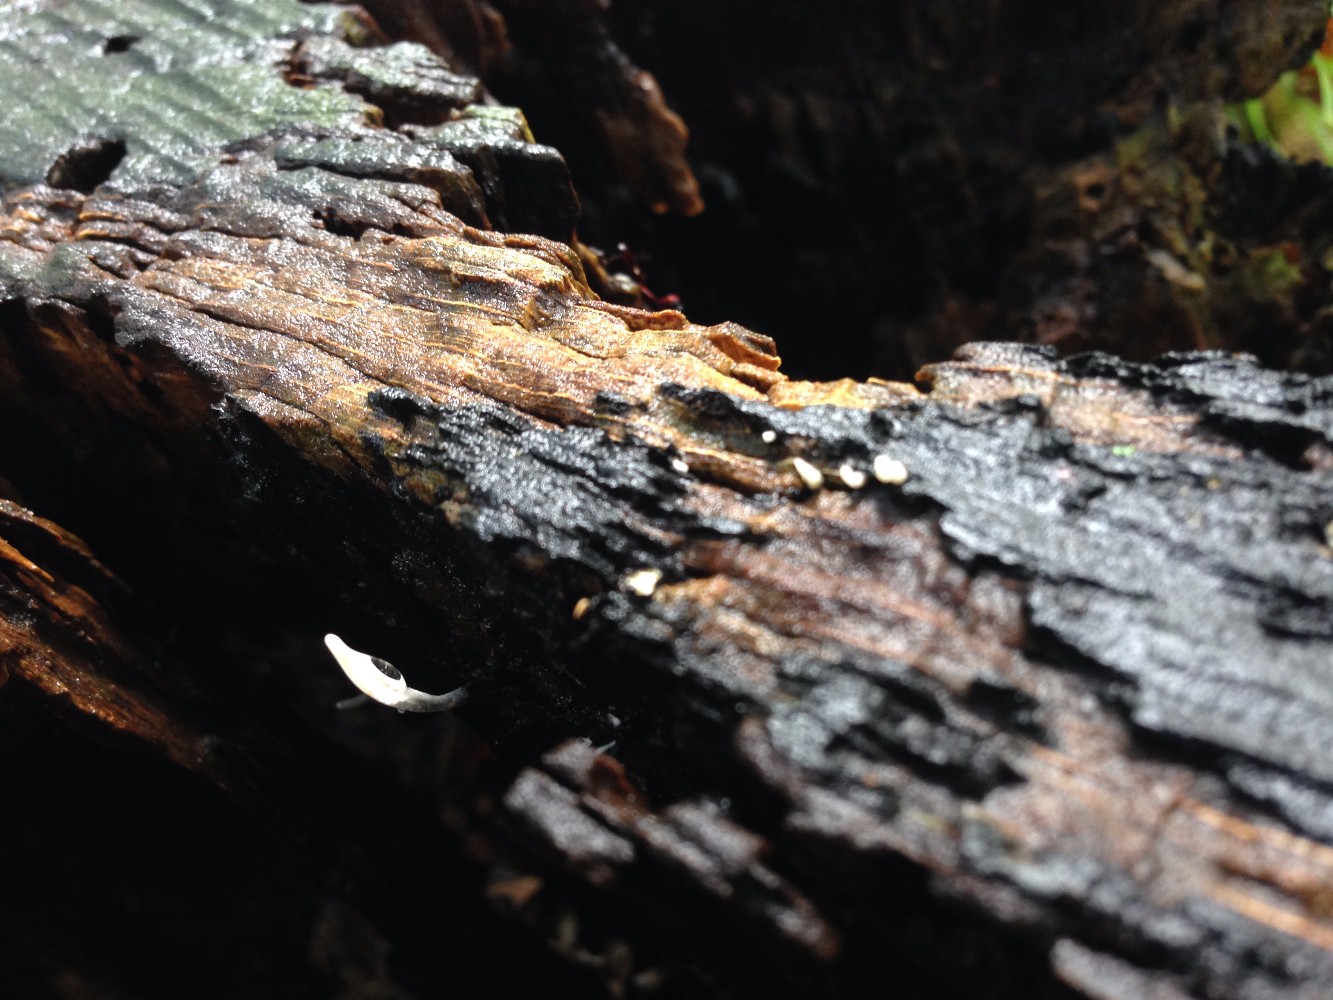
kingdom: Fungi
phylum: Ascomycota
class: Sordariomycetes
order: Xylariales
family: Xylariaceae
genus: Xylaria
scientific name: Xylaria hypoxylon
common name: grenet stødsvamp
